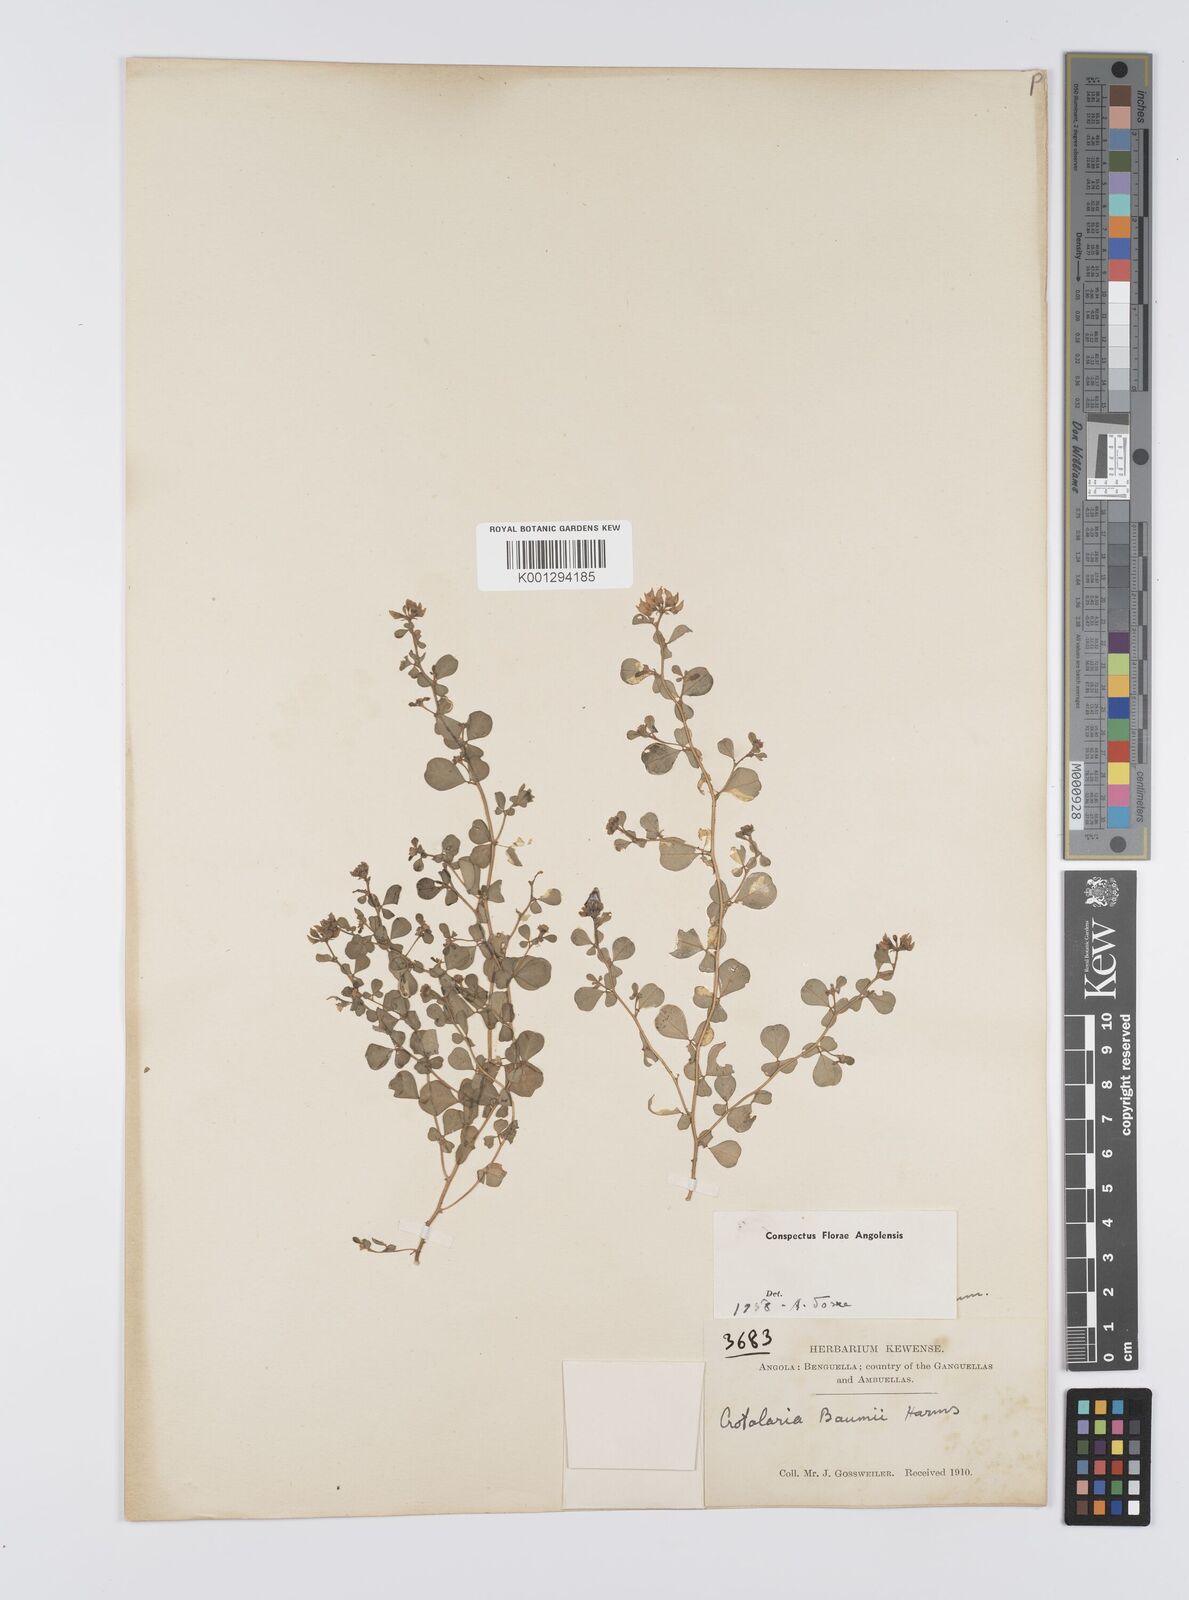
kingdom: Plantae
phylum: Tracheophyta
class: Magnoliopsida
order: Fabales
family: Fabaceae
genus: Crotalaria
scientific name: Crotalaria baumii
